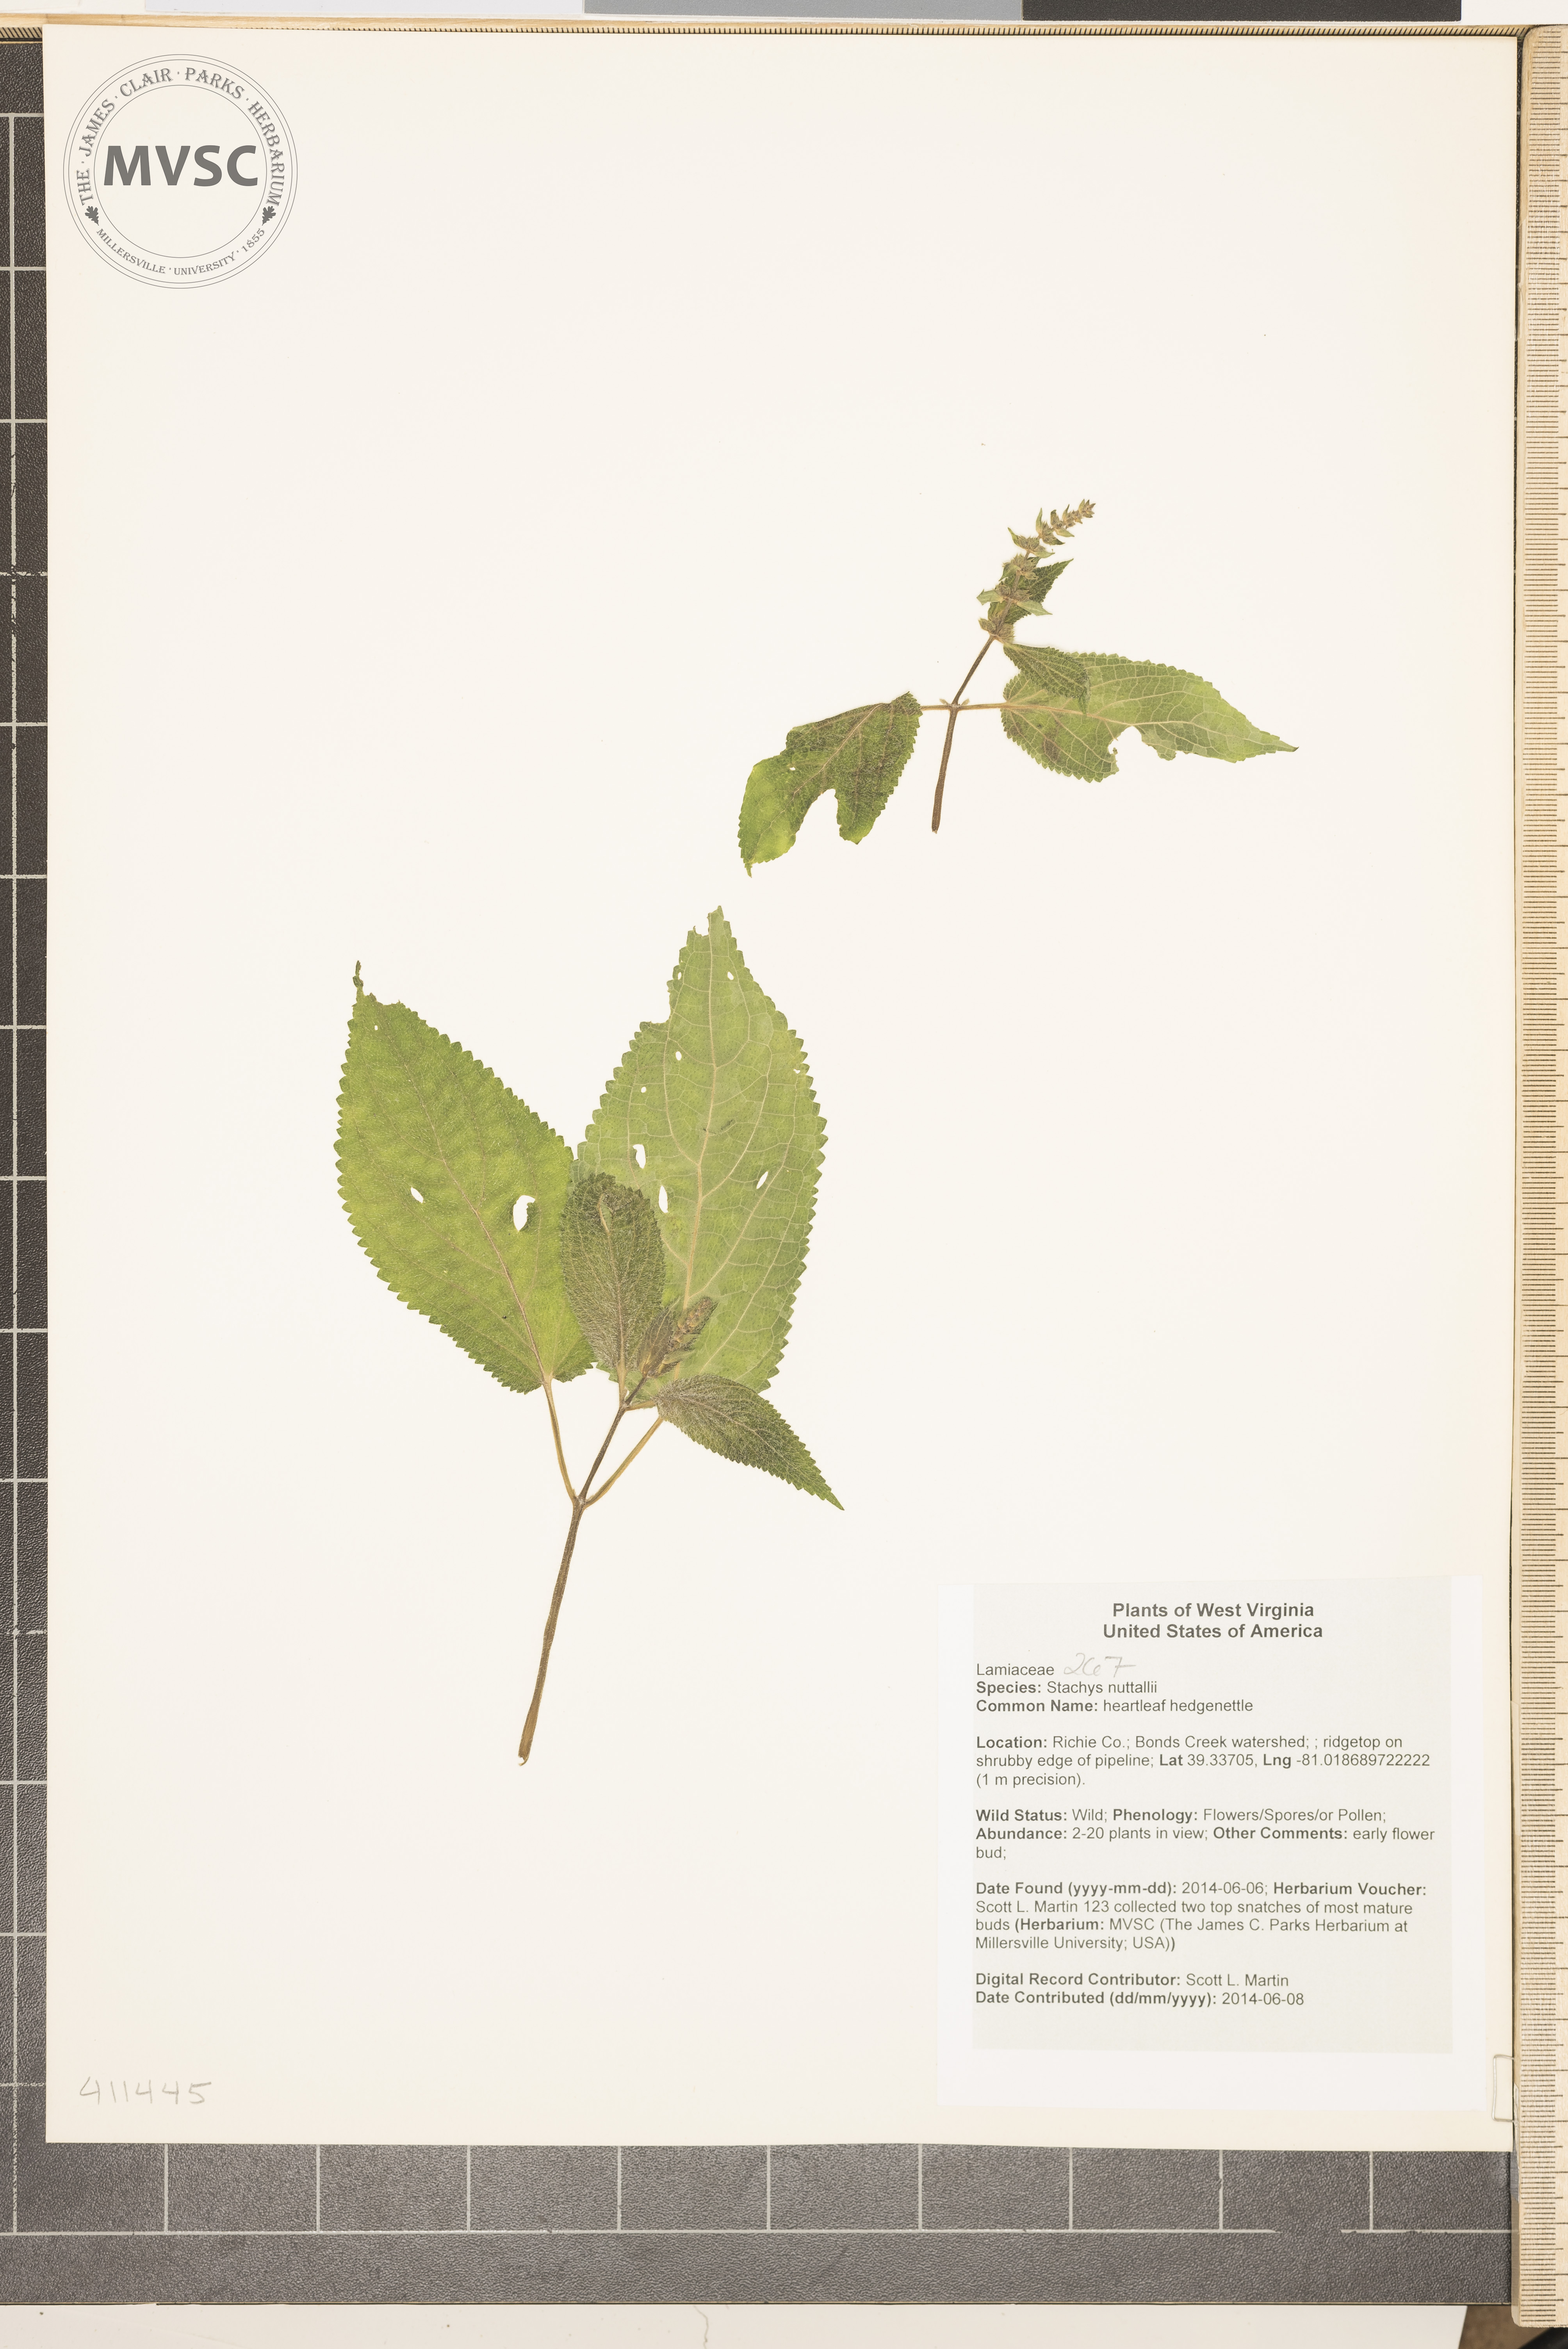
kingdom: Plantae
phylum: Tracheophyta
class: Magnoliopsida
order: Lamiales
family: Lamiaceae
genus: Stachys
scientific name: Stachys cordata
